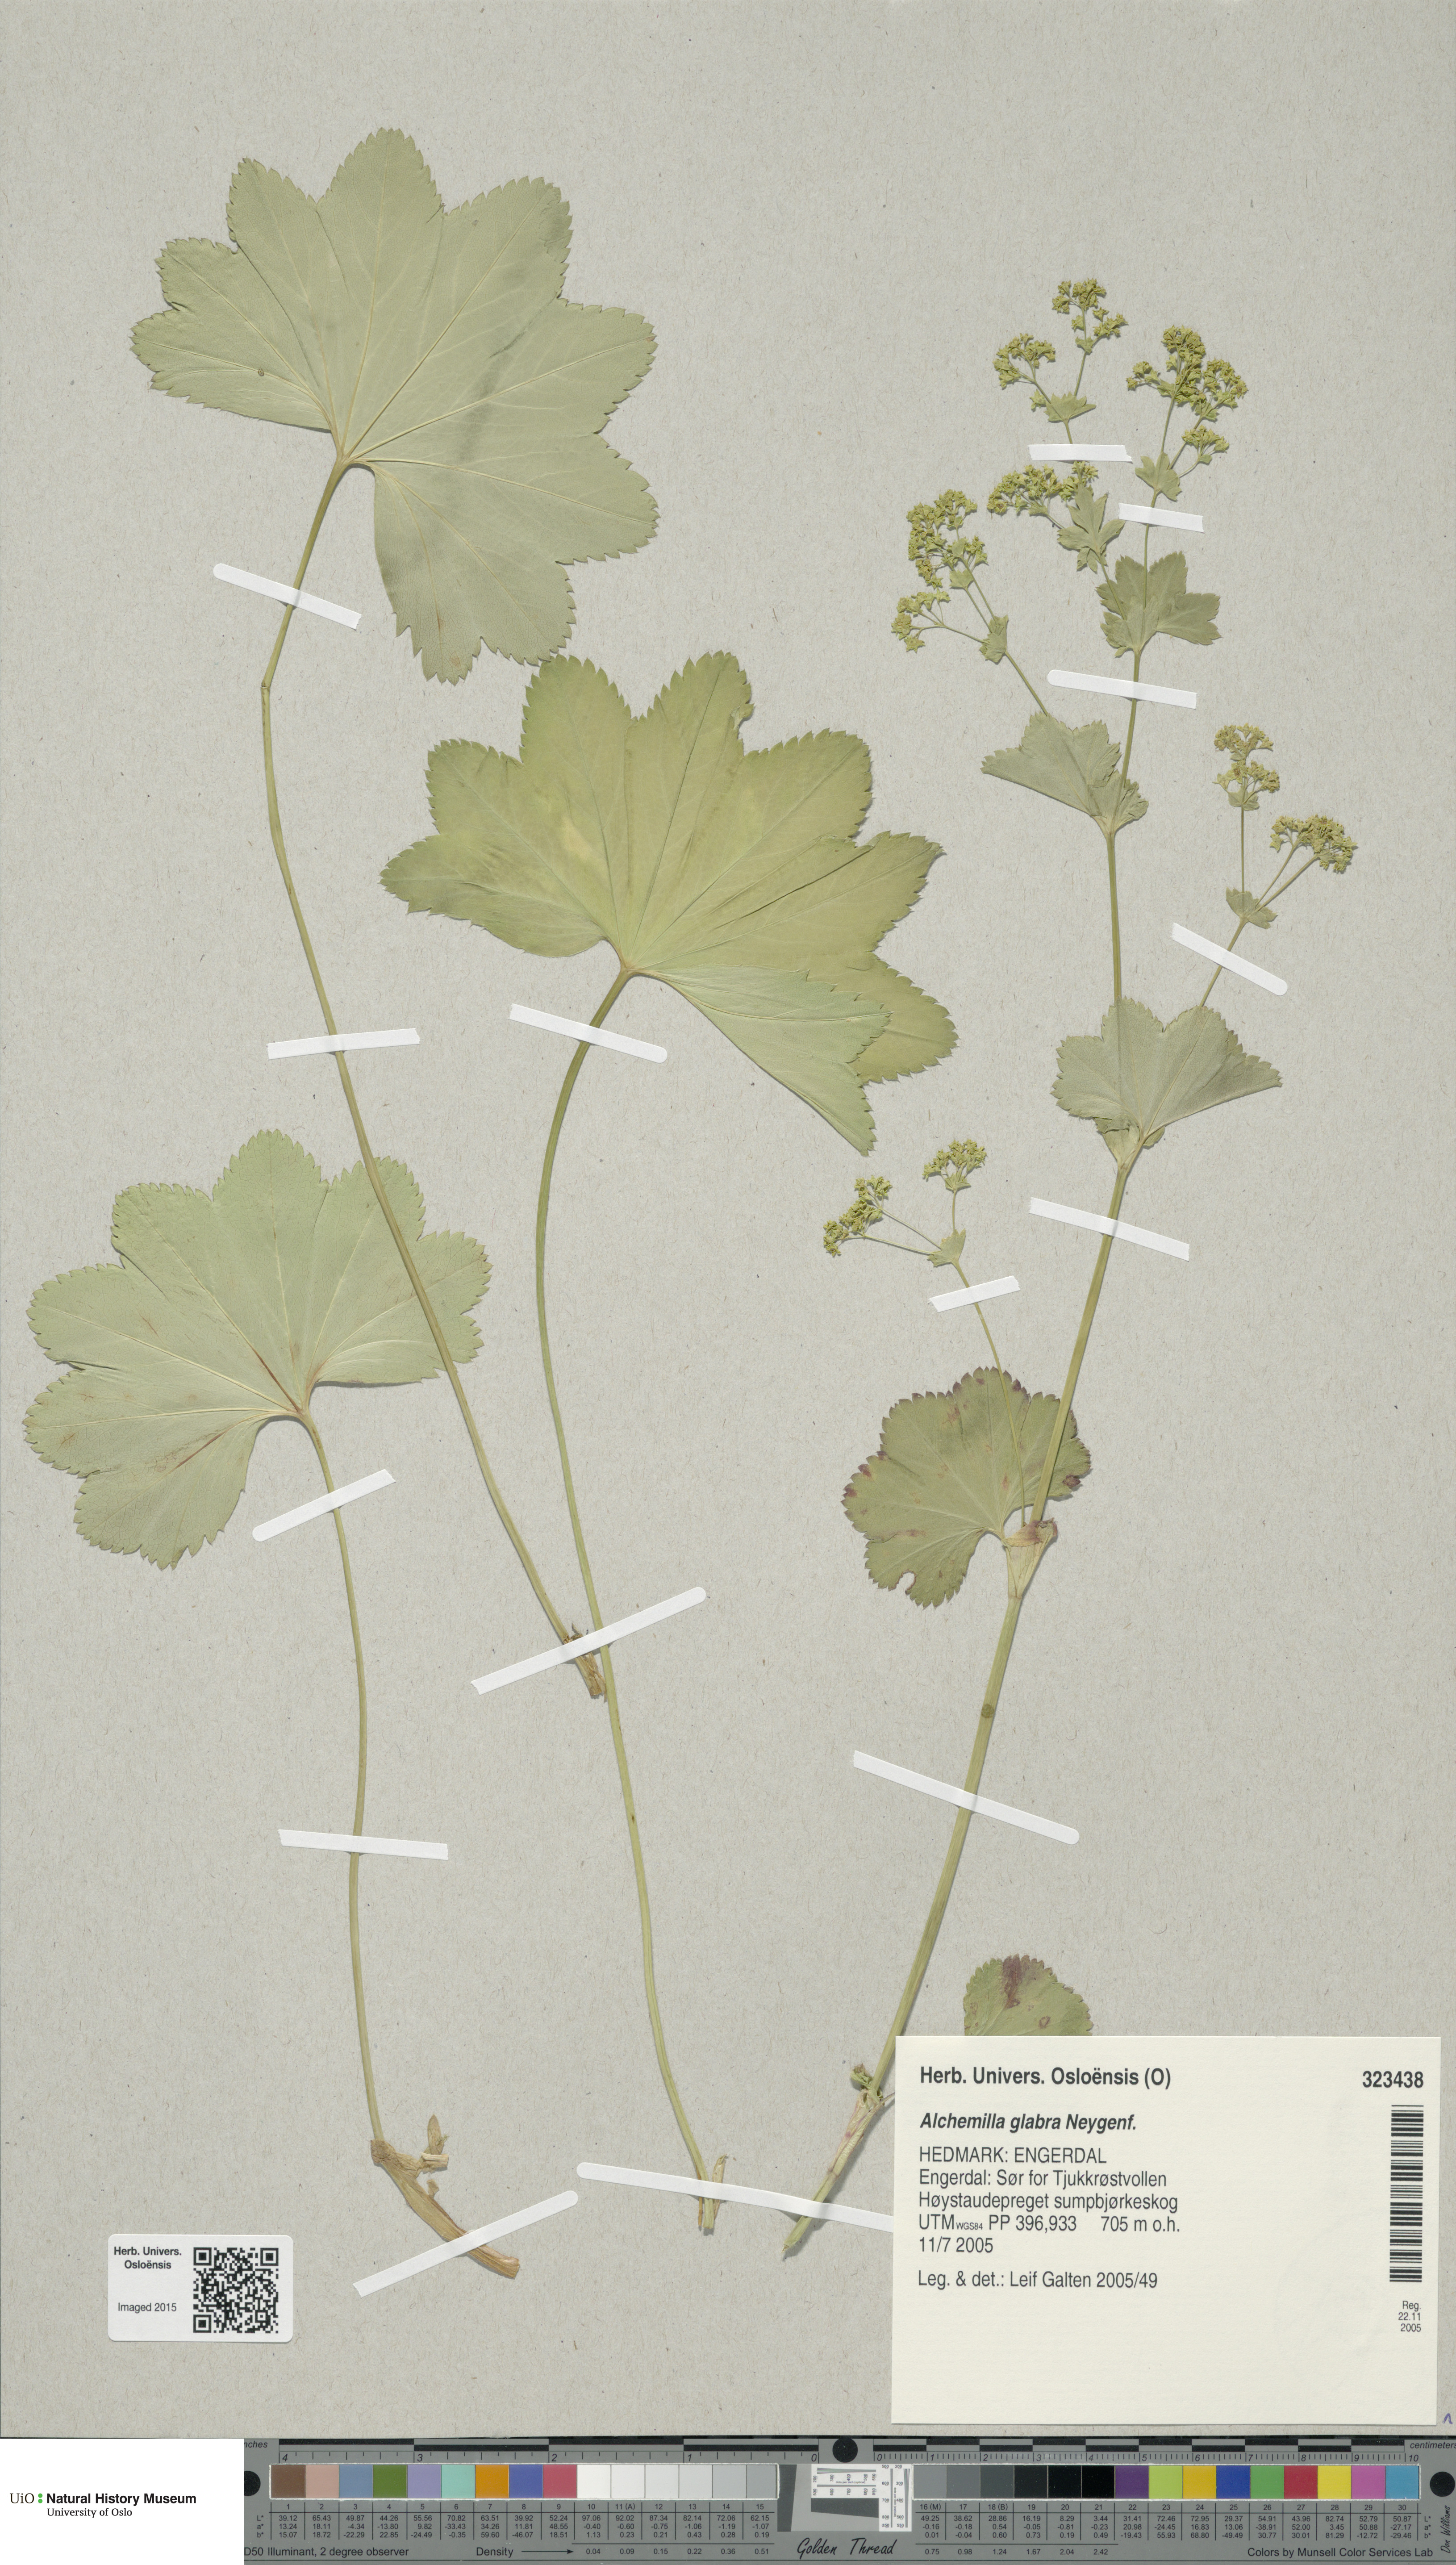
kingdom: Plantae
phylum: Tracheophyta
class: Magnoliopsida
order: Rosales
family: Rosaceae
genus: Alchemilla
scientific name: Alchemilla glabra
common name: Smooth lady's-mantle
